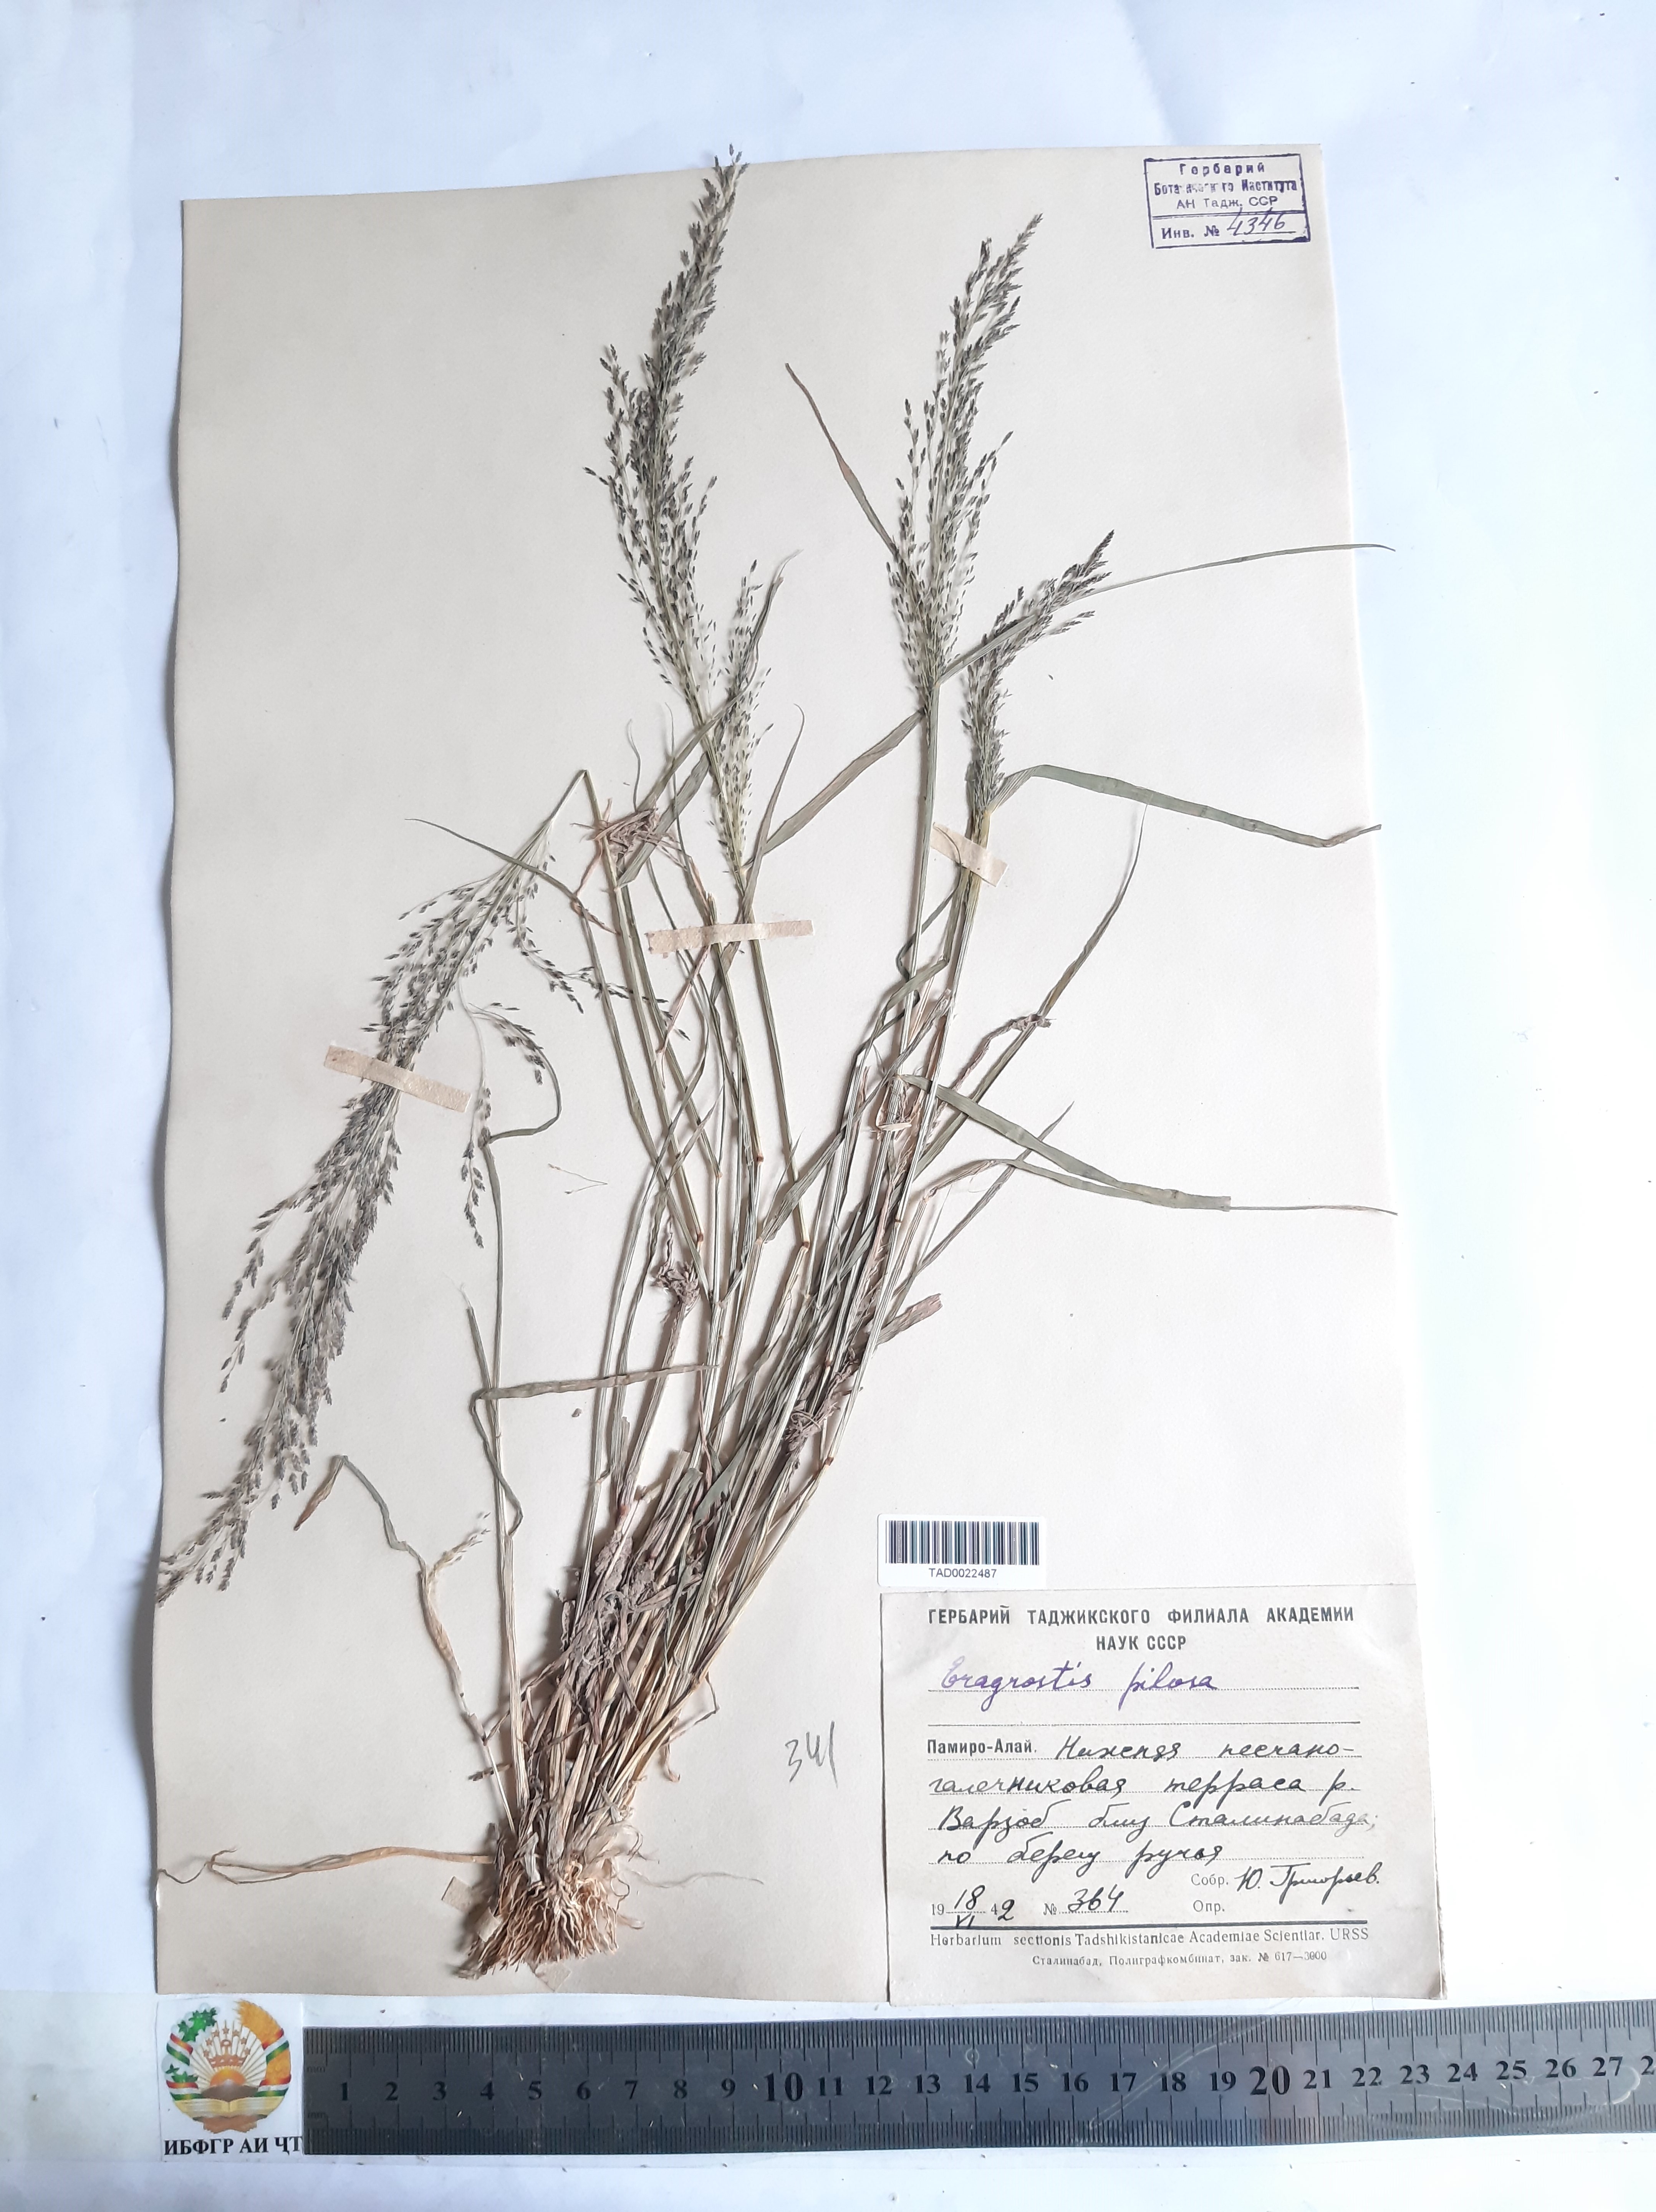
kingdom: Plantae
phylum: Tracheophyta
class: Liliopsida
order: Poales
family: Poaceae
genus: Eragrostis
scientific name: Eragrostis pilosa
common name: Indian lovegrass
